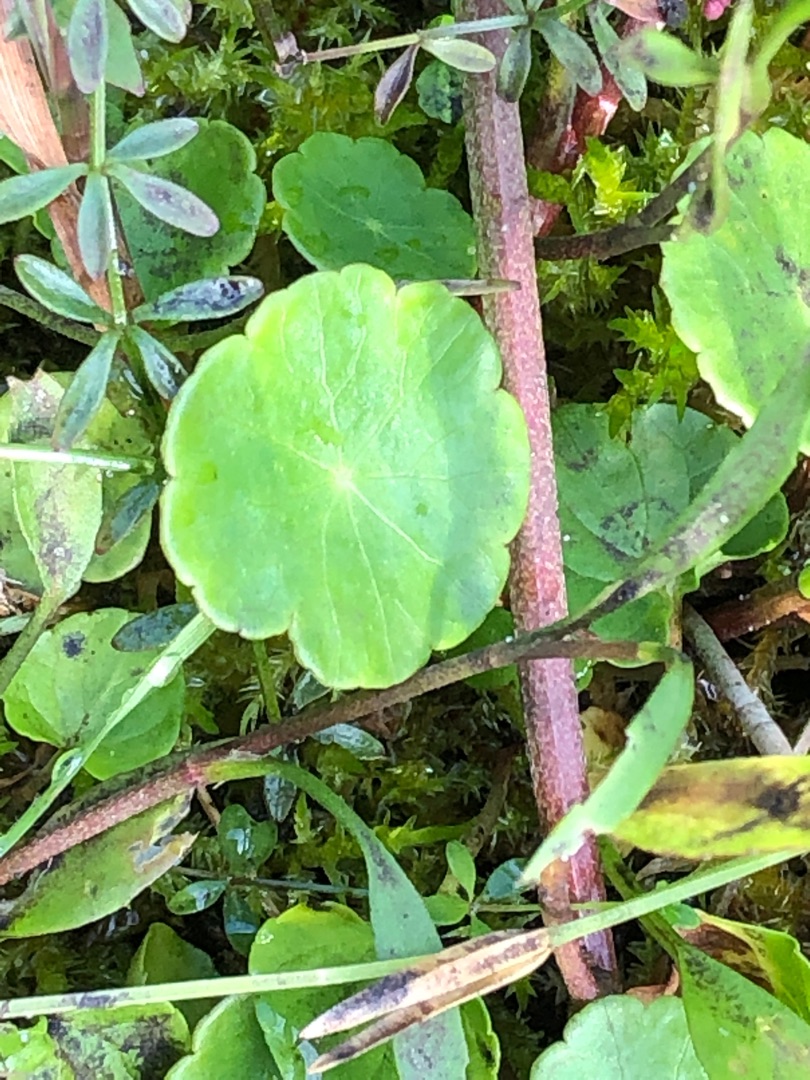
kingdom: Plantae
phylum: Tracheophyta
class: Magnoliopsida
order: Apiales
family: Araliaceae
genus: Hydrocotyle
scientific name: Hydrocotyle vulgaris
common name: Vandnavle
